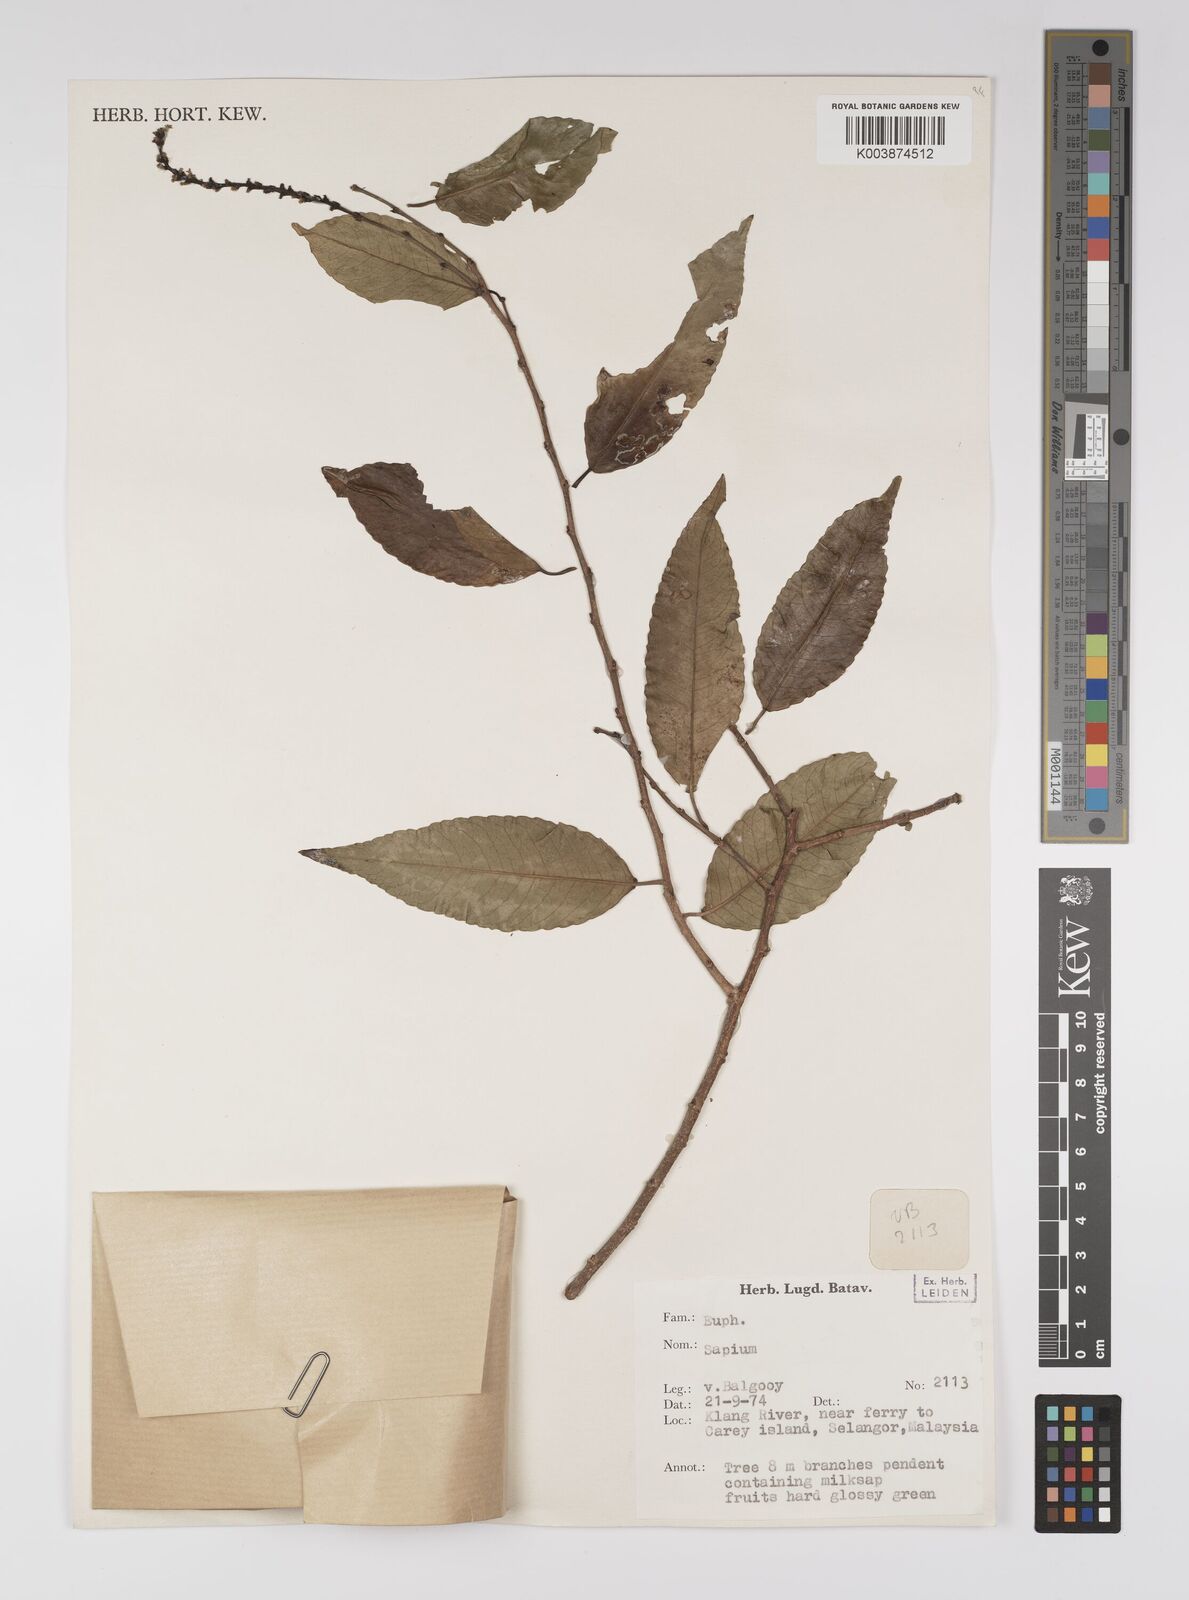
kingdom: Plantae
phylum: Tracheophyta
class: Magnoliopsida
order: Malpighiales
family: Euphorbiaceae
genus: Shirakiopsis
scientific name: Shirakiopsis indica
